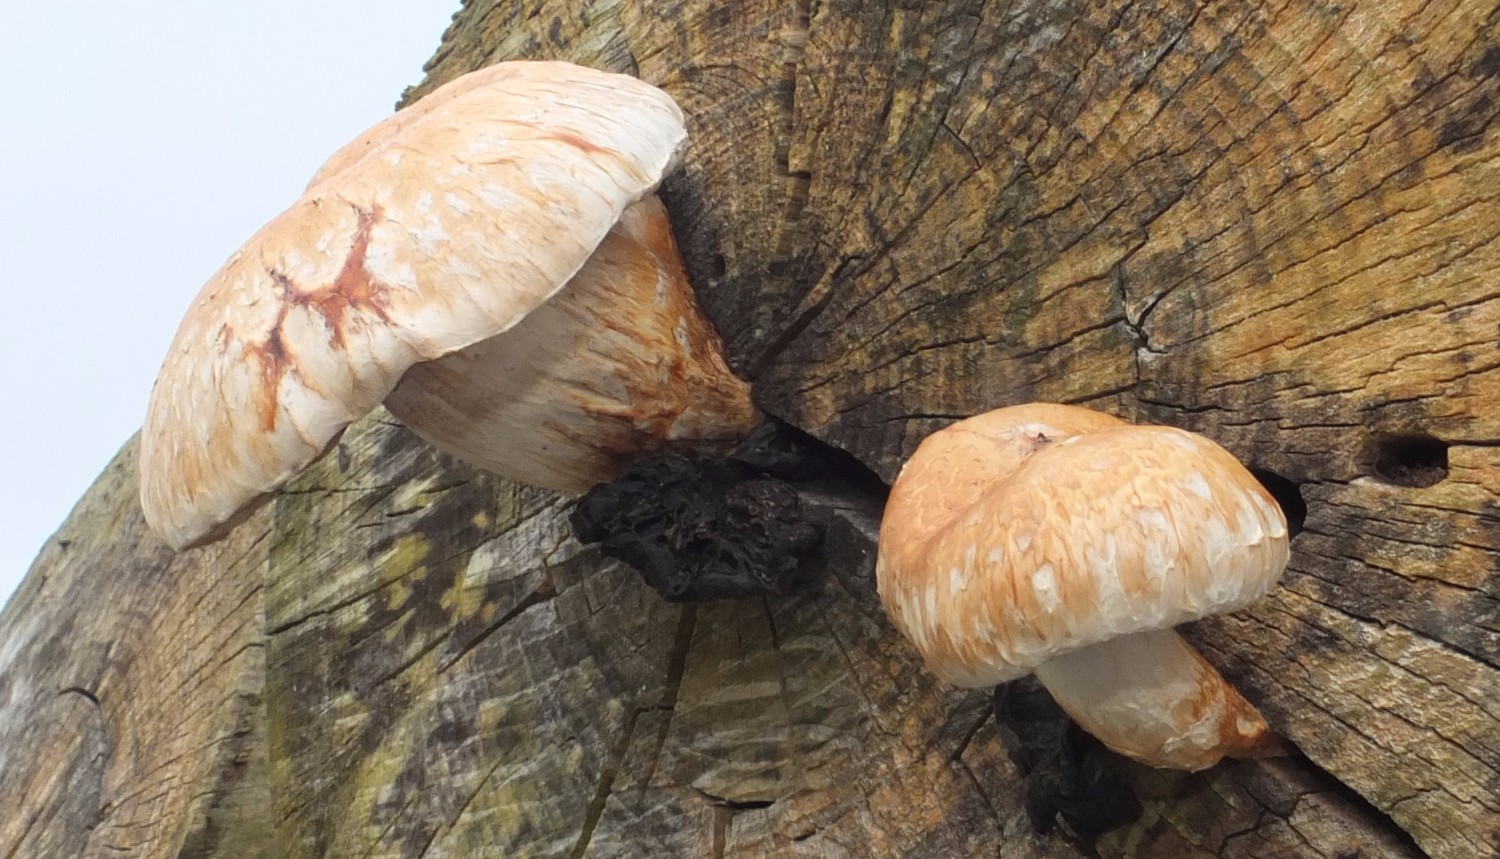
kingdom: Fungi
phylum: Basidiomycota
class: Agaricomycetes
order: Agaricales
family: Strophariaceae
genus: Pholiota
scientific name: Pholiota populnea
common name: poppel-kæmpeskælhat
